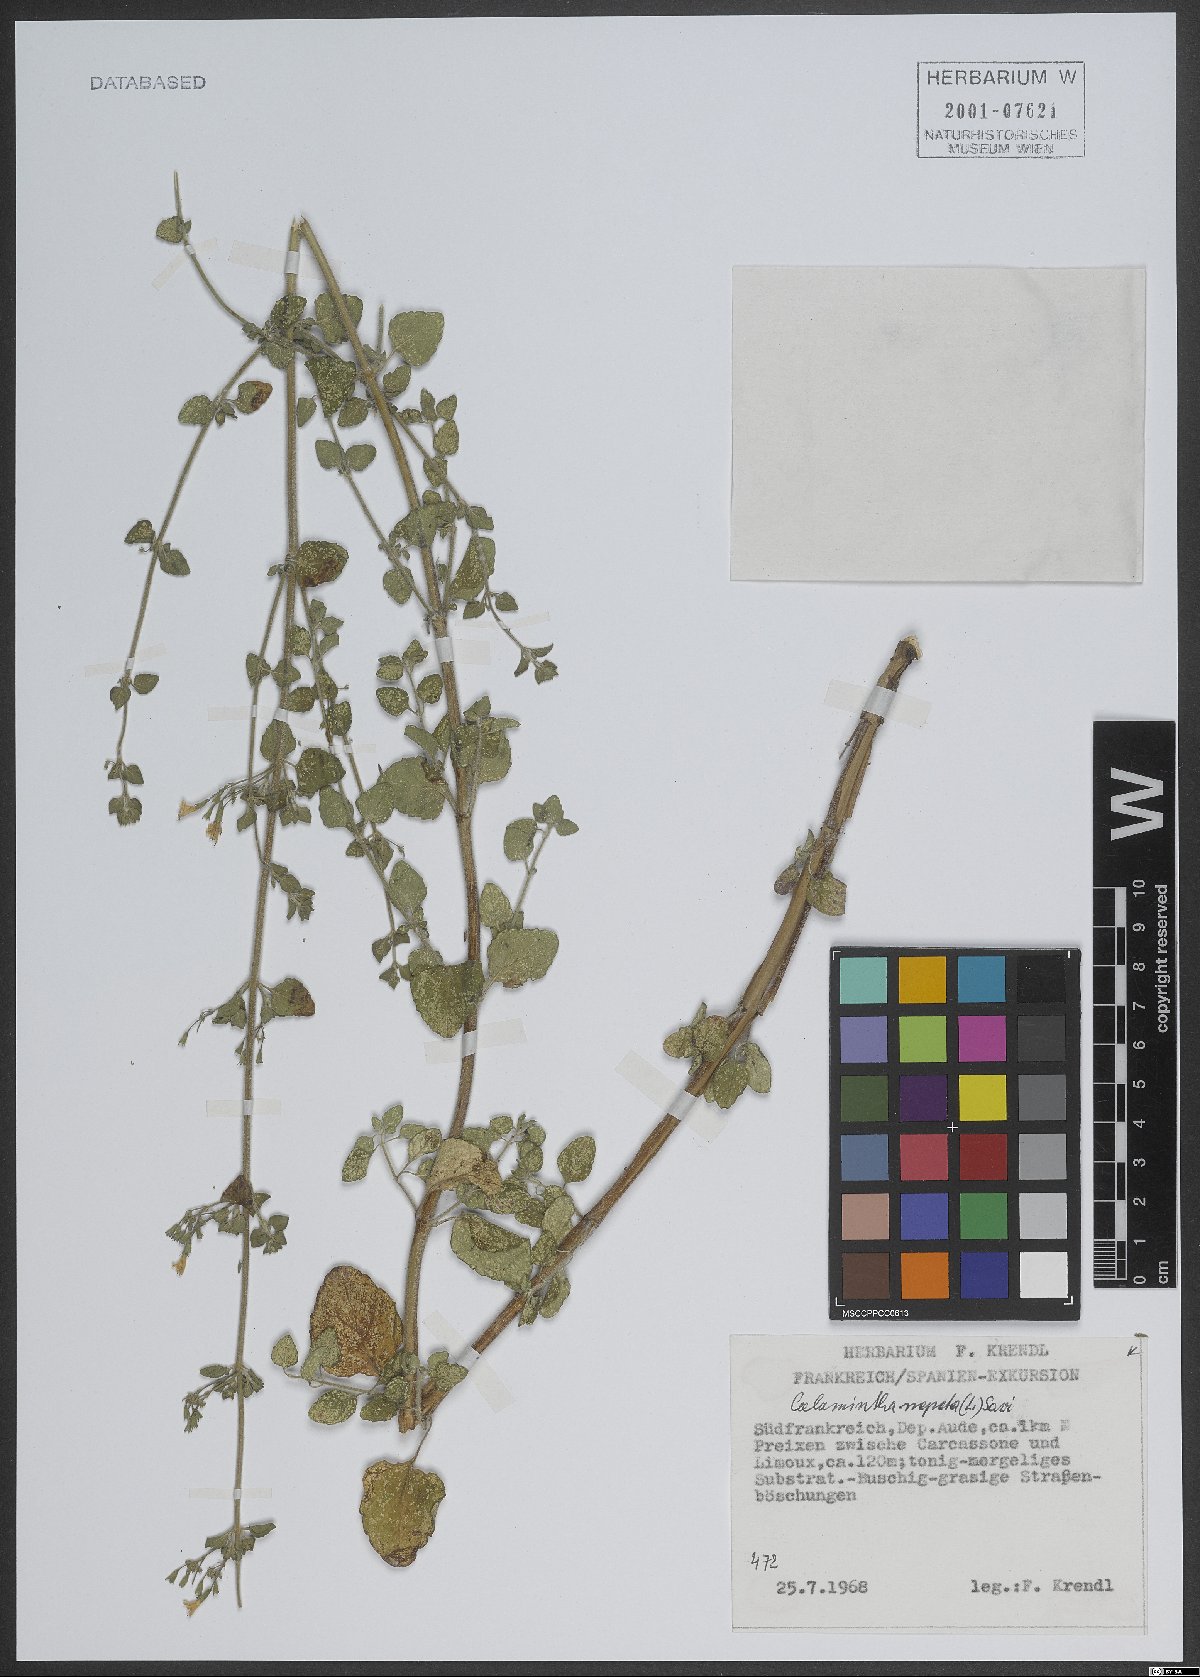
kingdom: Plantae
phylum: Tracheophyta
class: Magnoliopsida
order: Lamiales
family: Lamiaceae
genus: Clinopodium
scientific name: Clinopodium nepeta
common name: Lesser calamint
